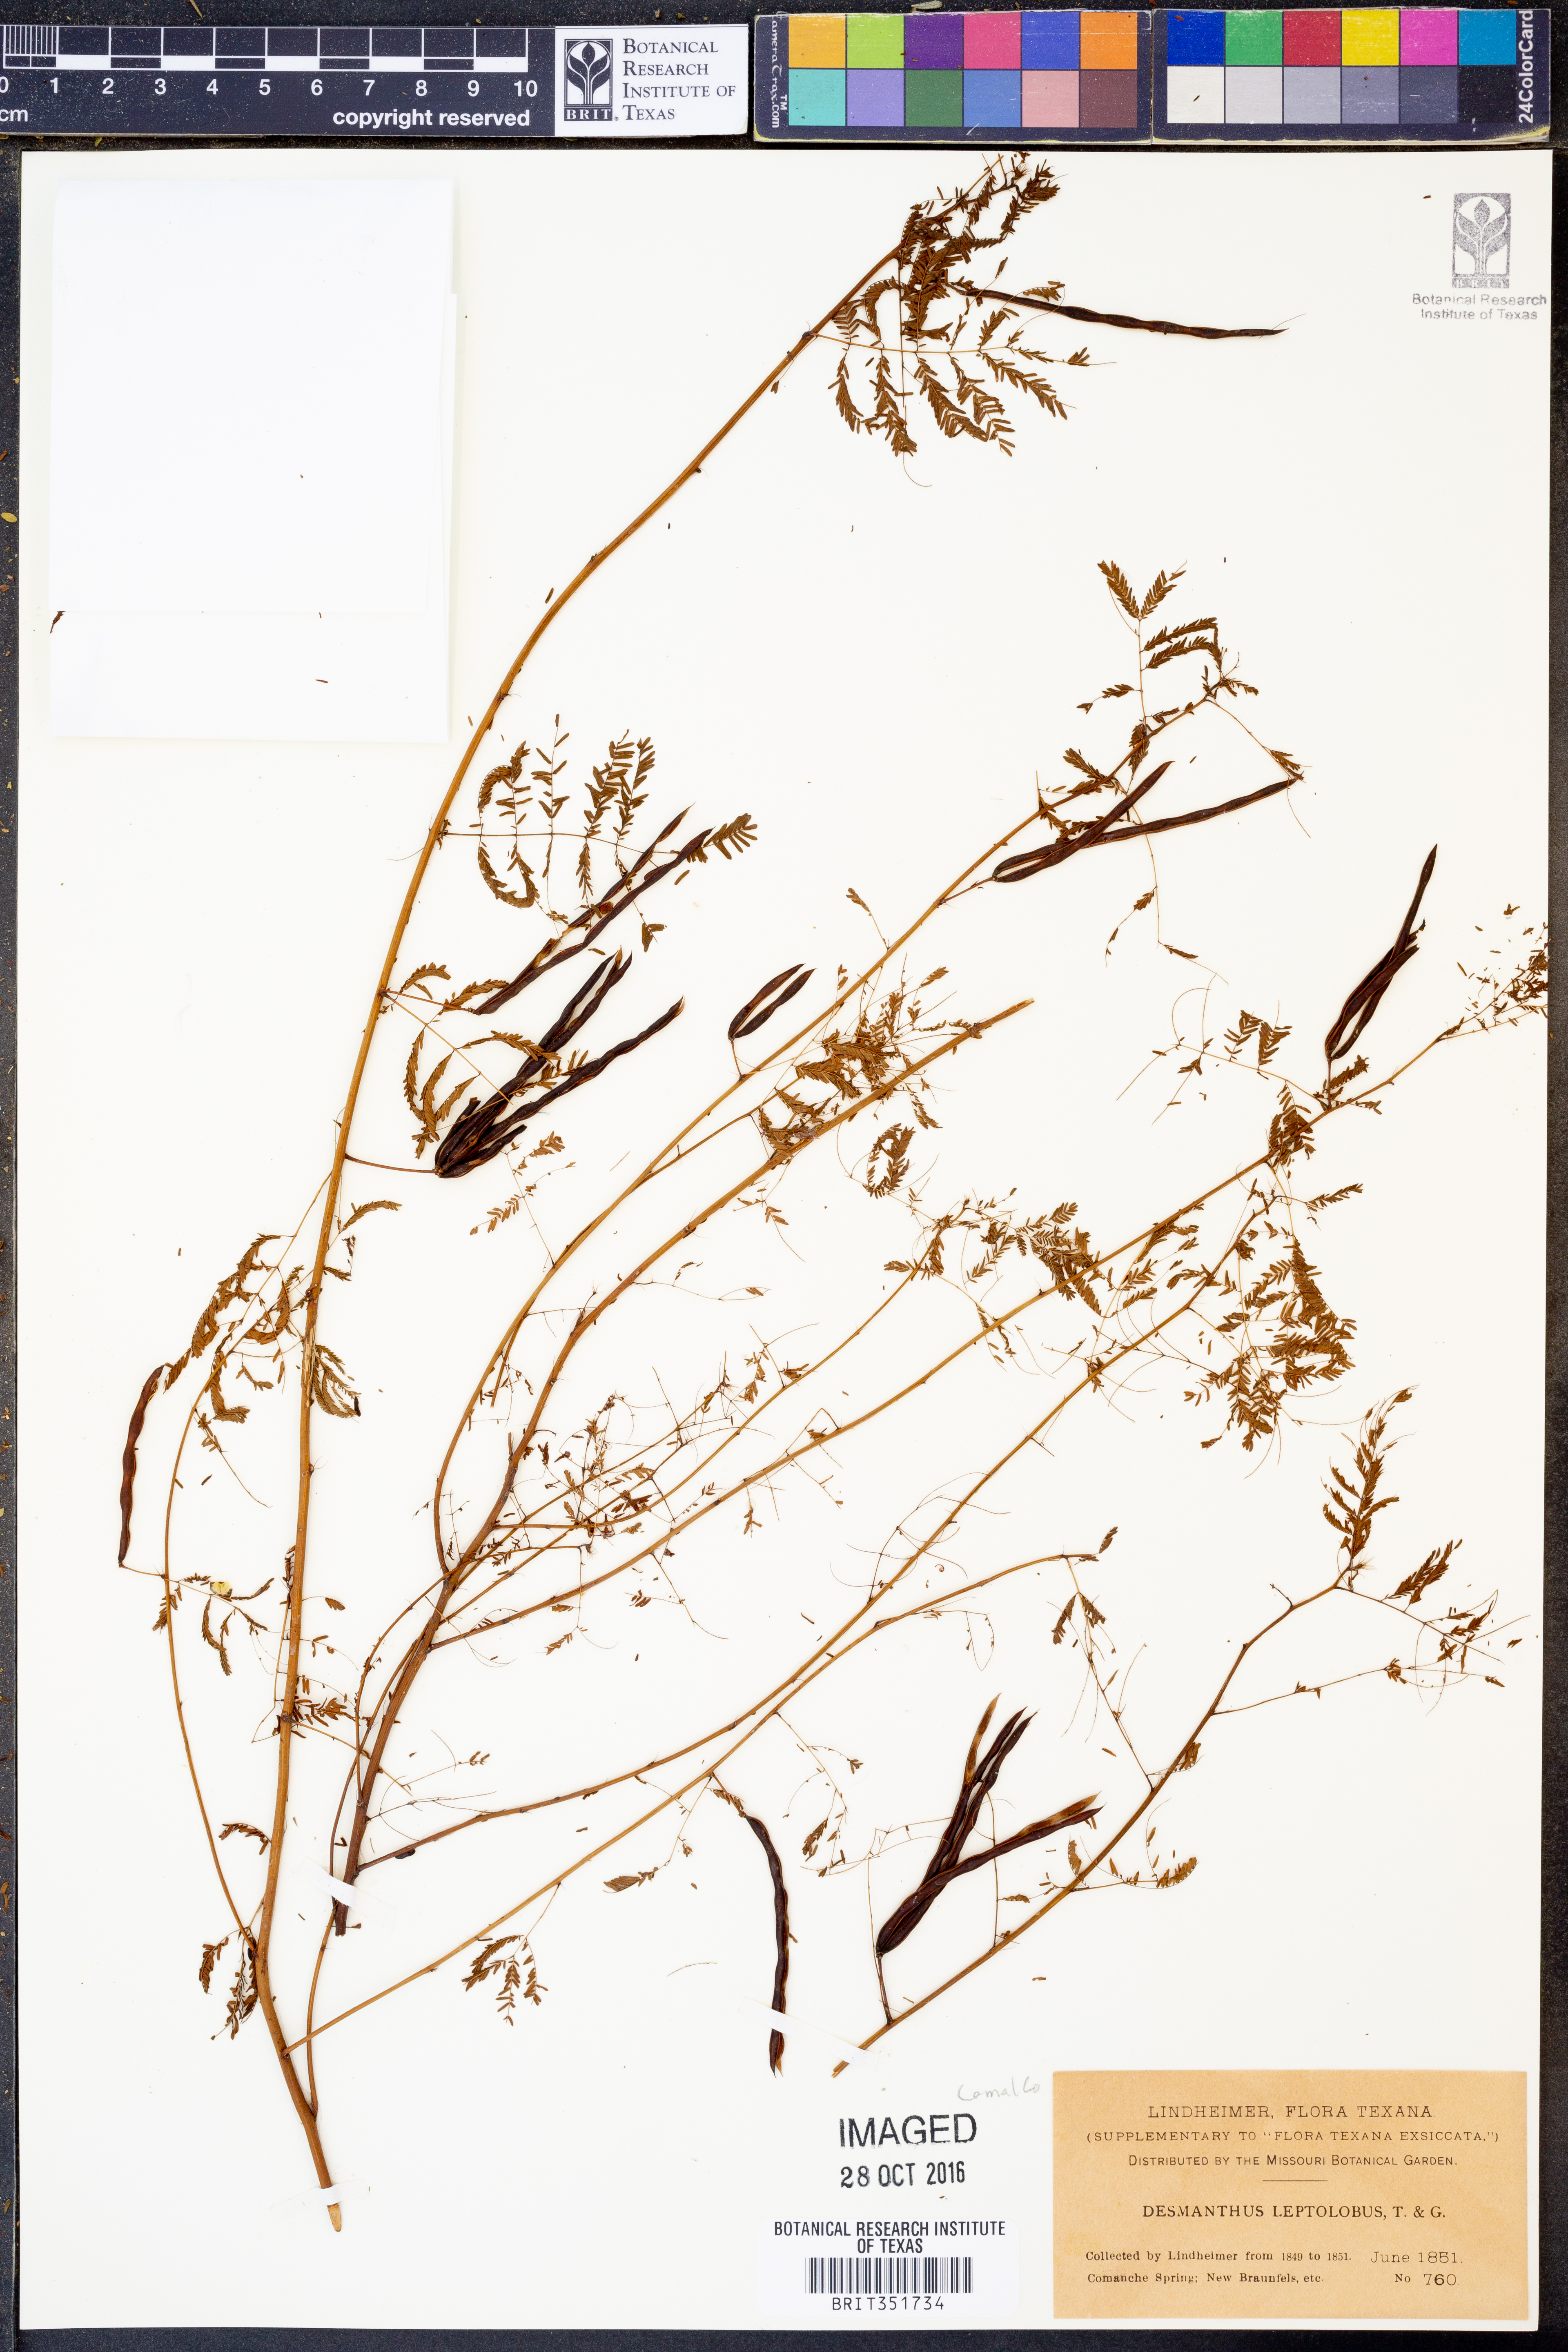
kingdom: Plantae
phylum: Tracheophyta
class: Magnoliopsida
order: Fabales
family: Fabaceae
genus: Desmanthus
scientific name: Desmanthus leptolobus
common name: Prairie-mimosa
